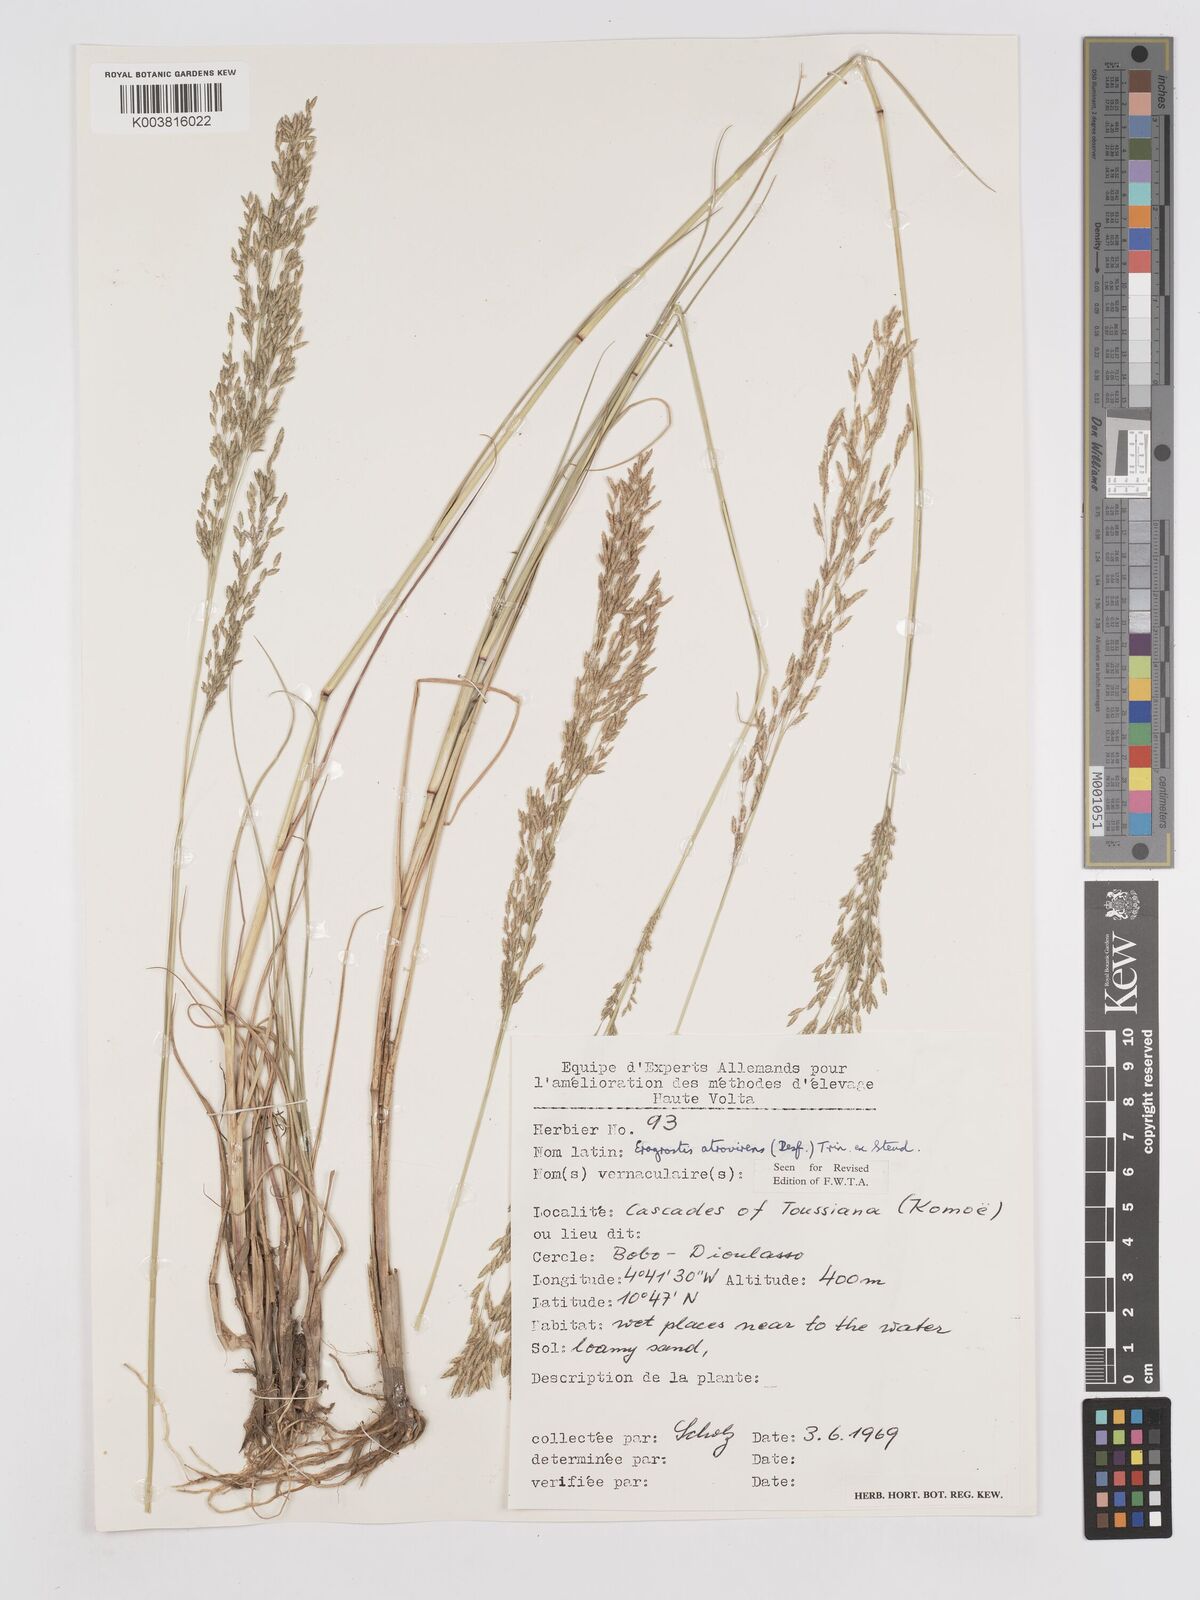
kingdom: Plantae
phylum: Tracheophyta
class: Liliopsida
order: Poales
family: Poaceae
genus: Eragrostis
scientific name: Eragrostis atrovirens
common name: Thalia lovegrass
